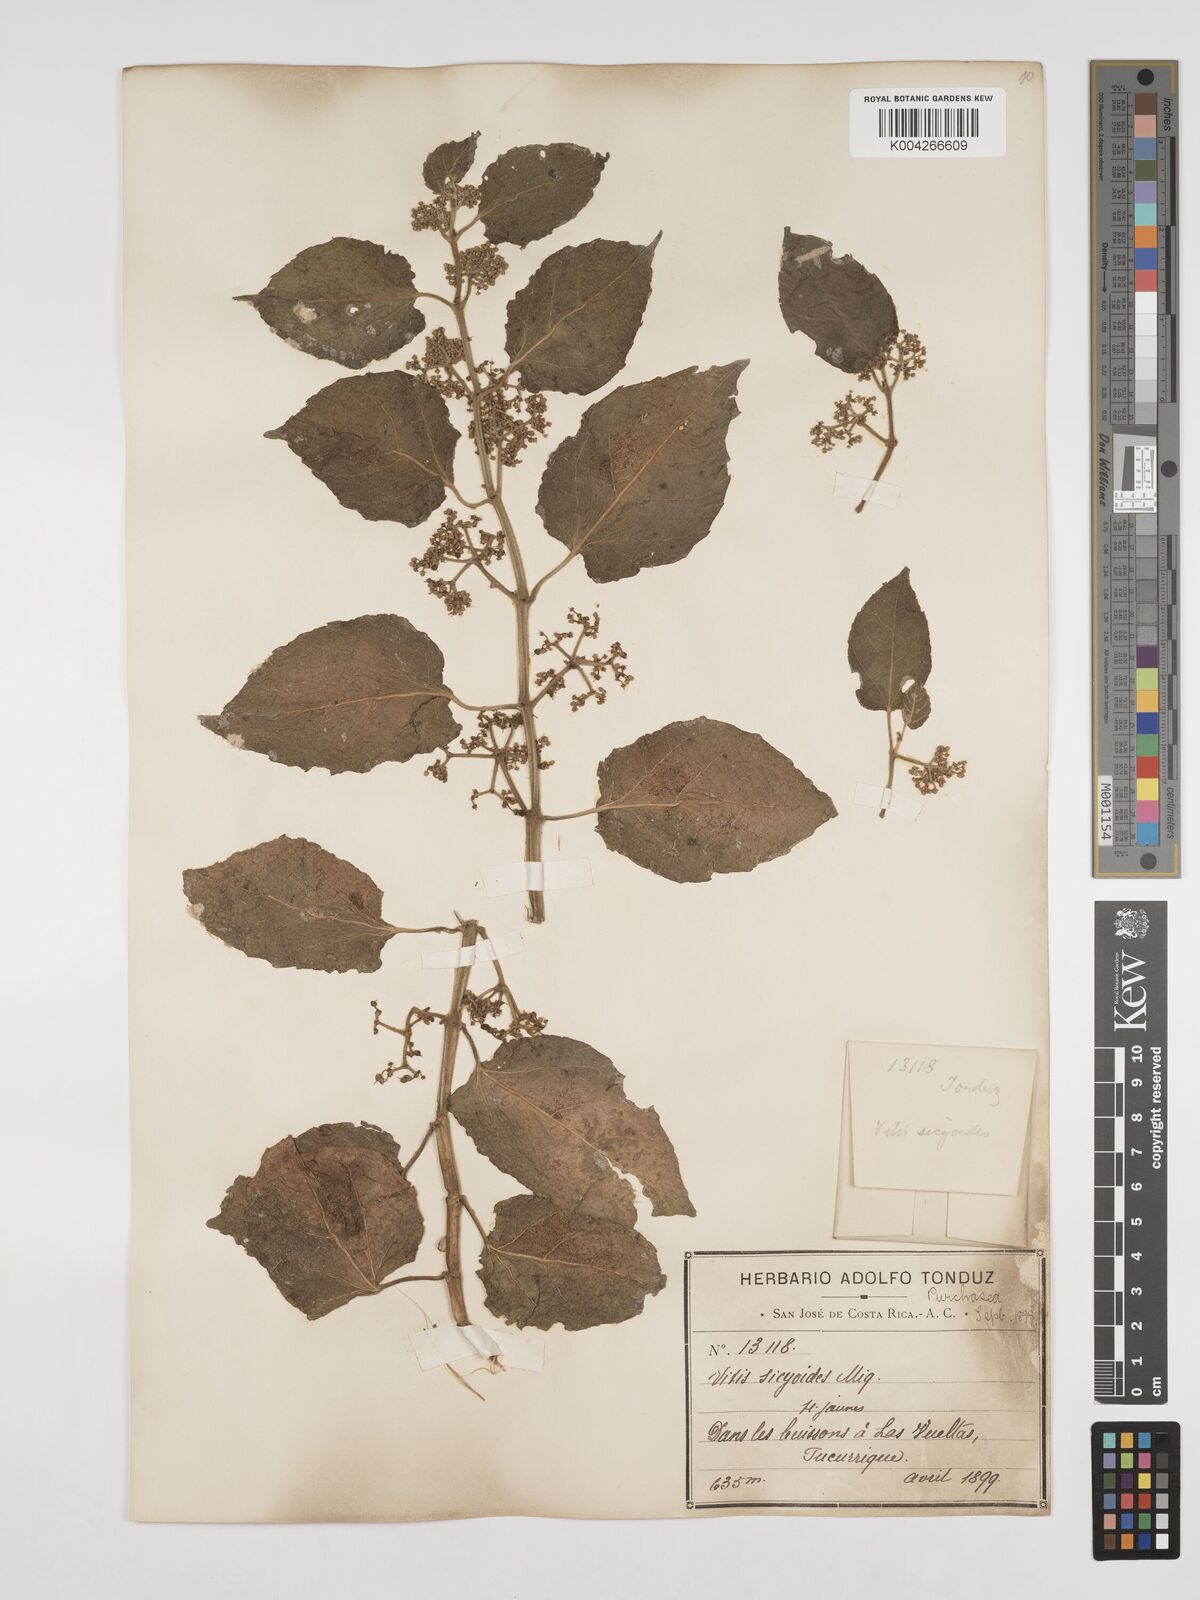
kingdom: Plantae
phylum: Tracheophyta
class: Magnoliopsida
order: Vitales
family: Vitaceae
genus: Cissus
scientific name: Cissus
